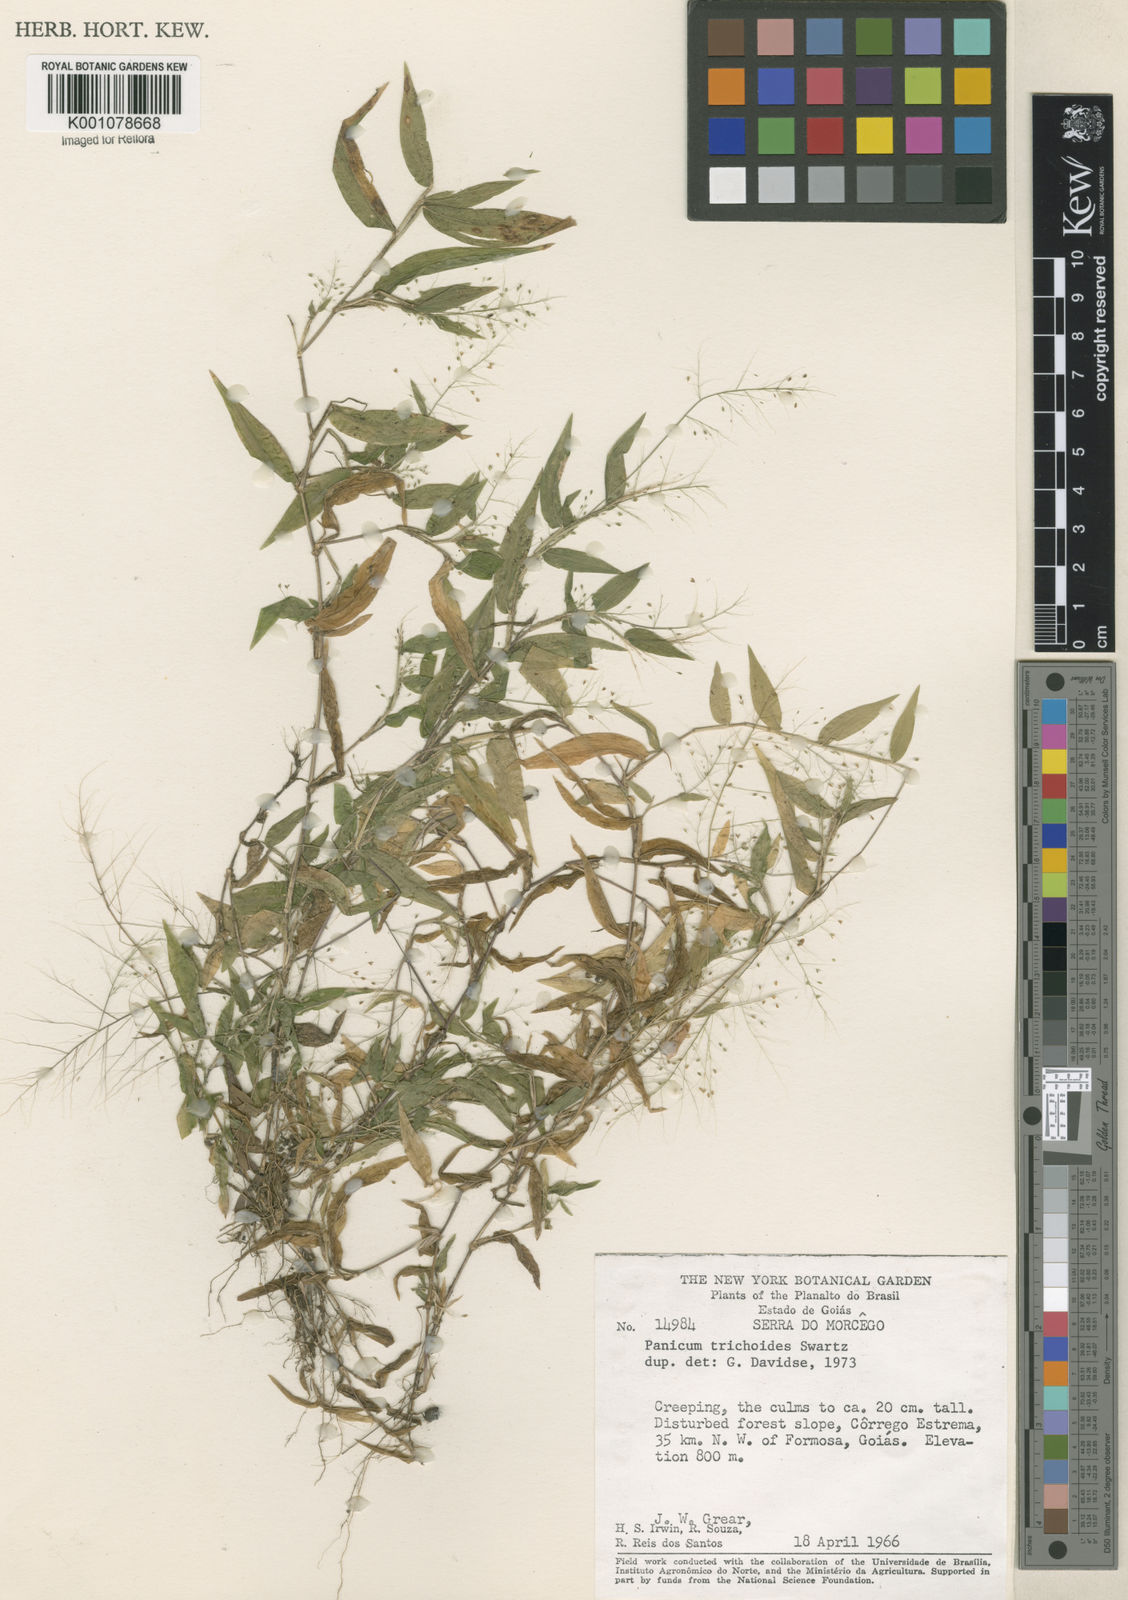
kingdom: Plantae
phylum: Tracheophyta
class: Liliopsida
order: Poales
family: Poaceae
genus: Panicum
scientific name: Panicum trichoides
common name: Tickle grass
